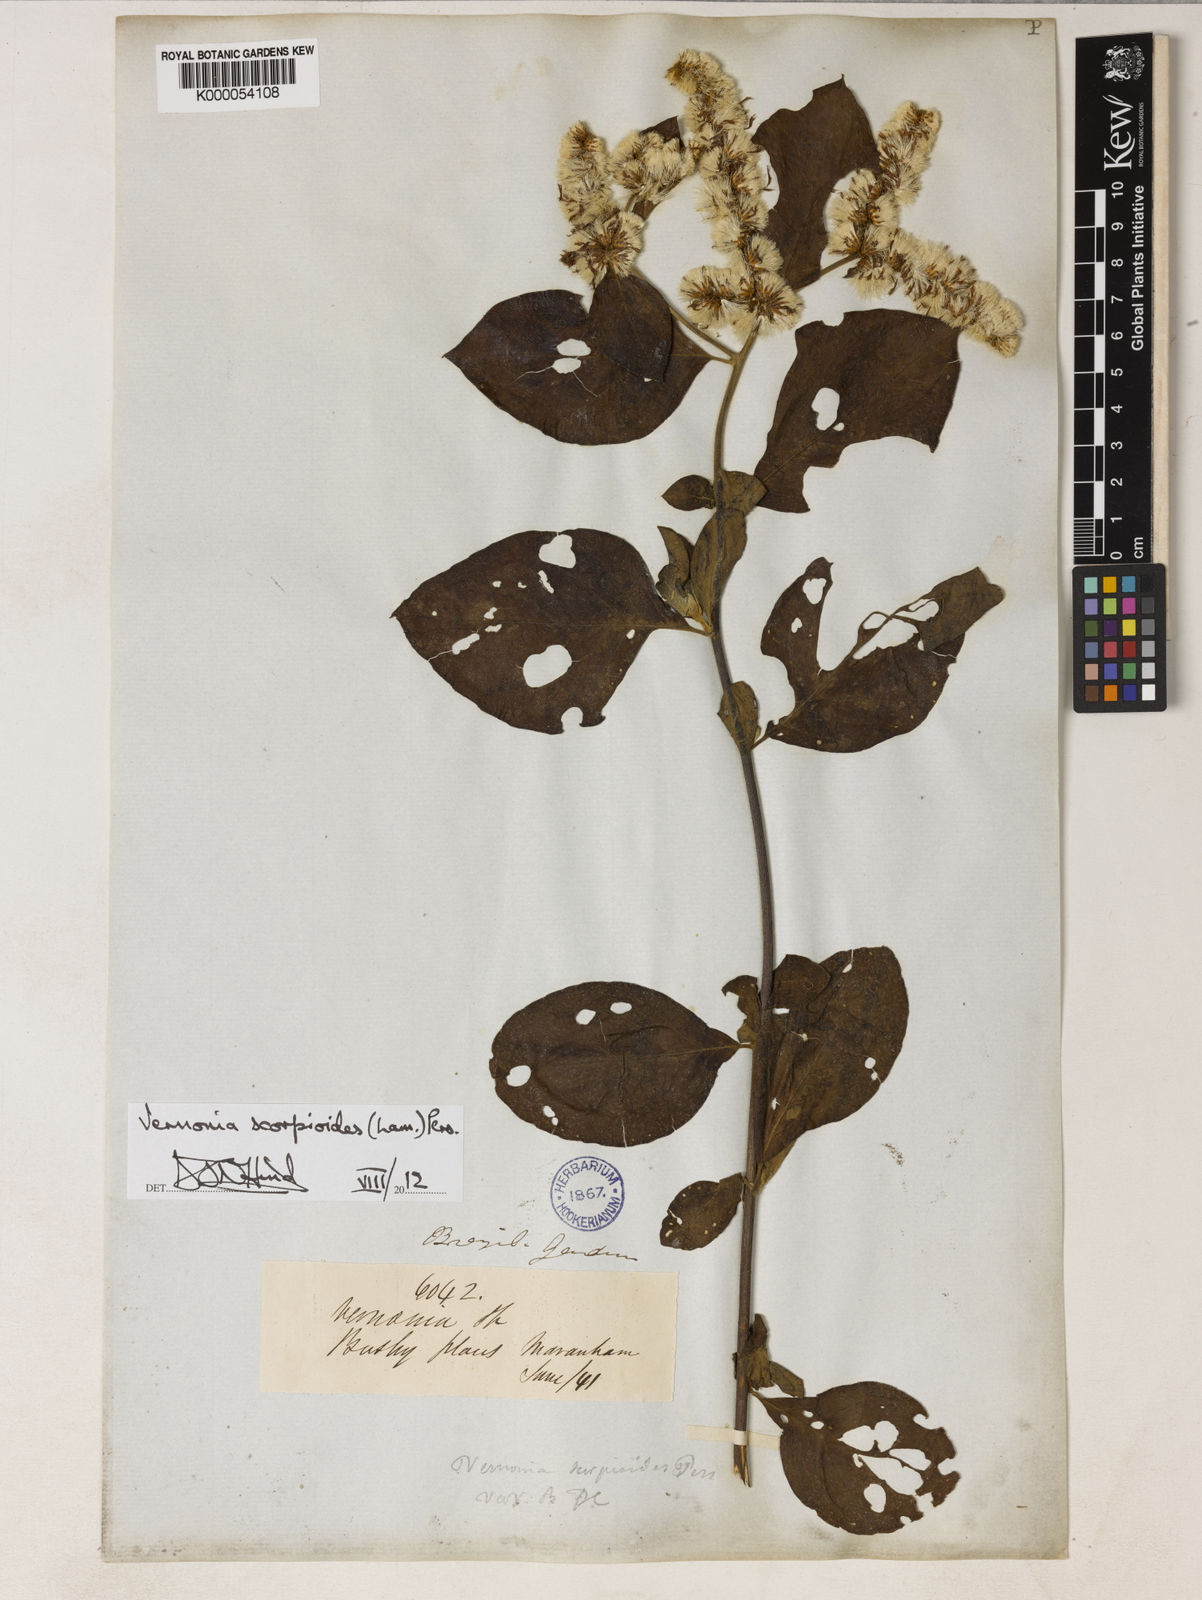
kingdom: Plantae
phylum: Tracheophyta
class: Magnoliopsida
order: Asterales
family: Asteraceae
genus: Cyrtocymura
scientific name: Cyrtocymura scorpioides
